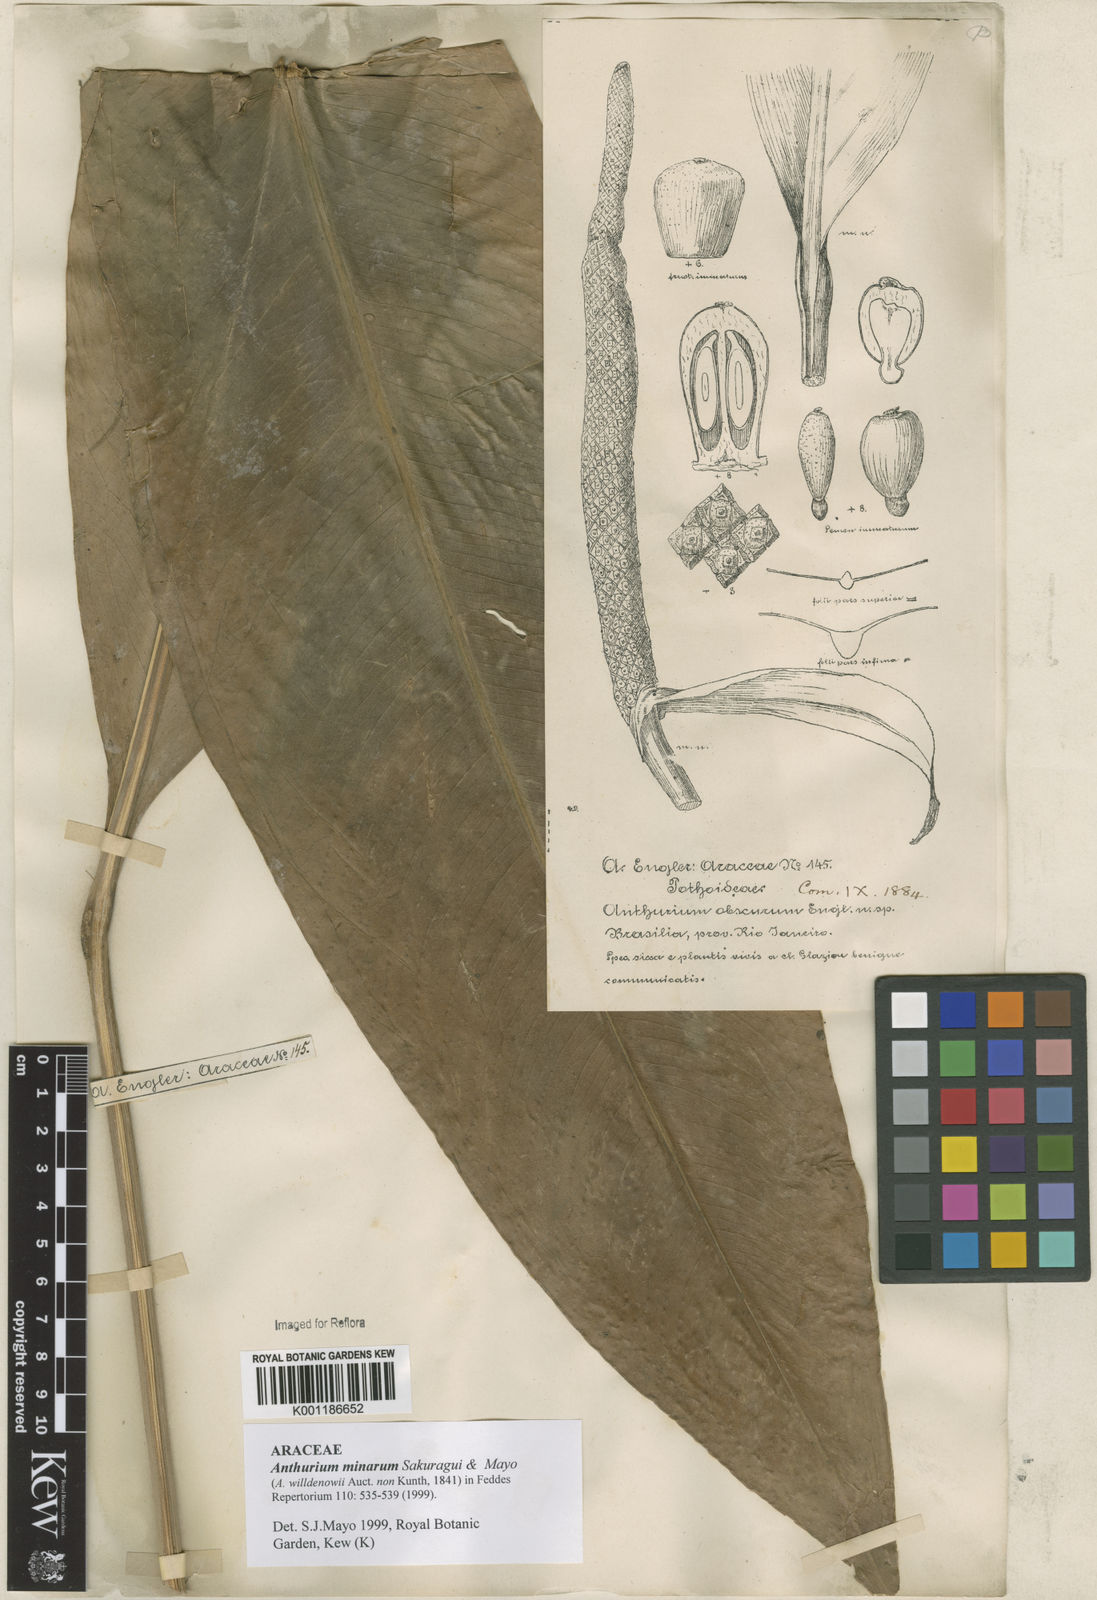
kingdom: Plantae
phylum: Tracheophyta
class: Liliopsida
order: Alismatales
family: Araceae
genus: Anthurium
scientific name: Anthurium minarum
